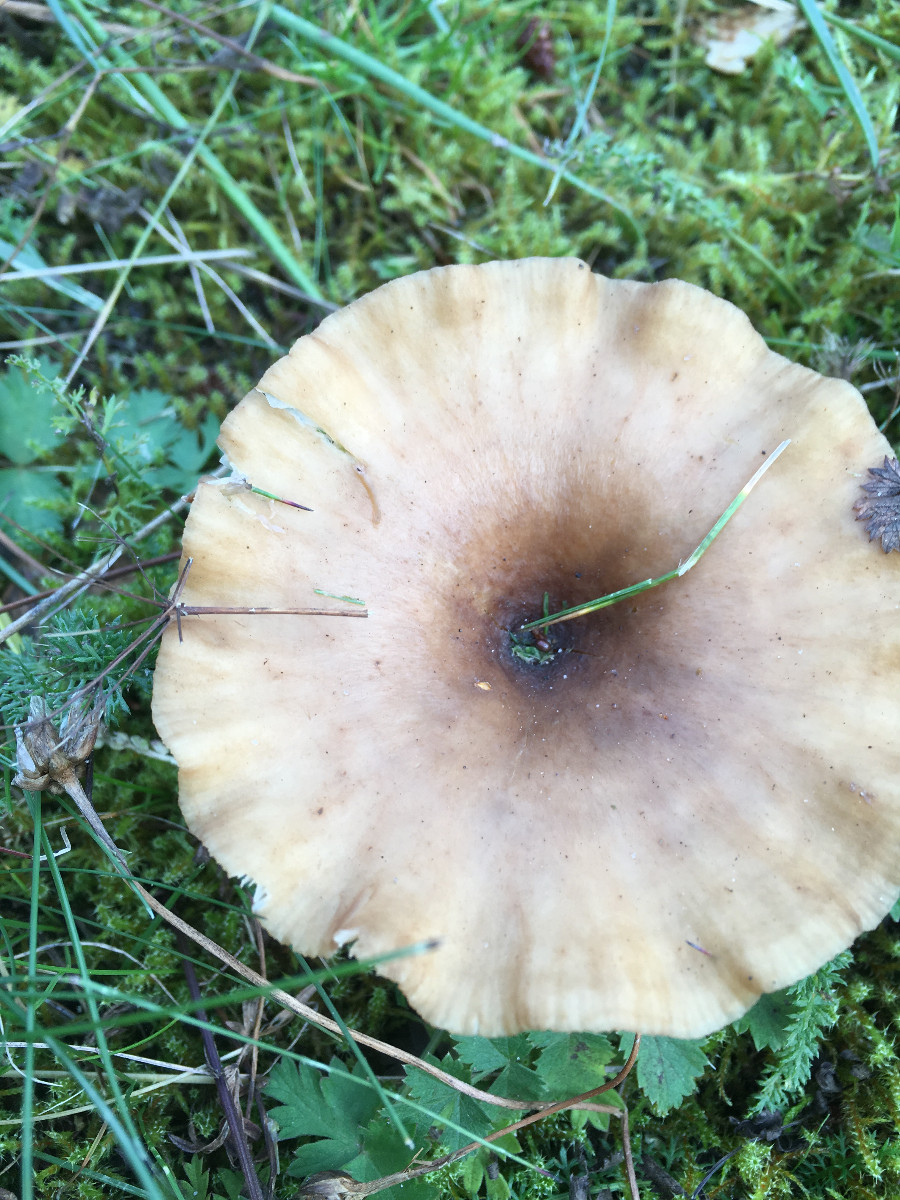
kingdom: Fungi
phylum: Basidiomycota
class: Agaricomycetes
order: Agaricales
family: Tricholomataceae
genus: Clitocybe
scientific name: Clitocybe costata
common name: brunstokket tragthat
